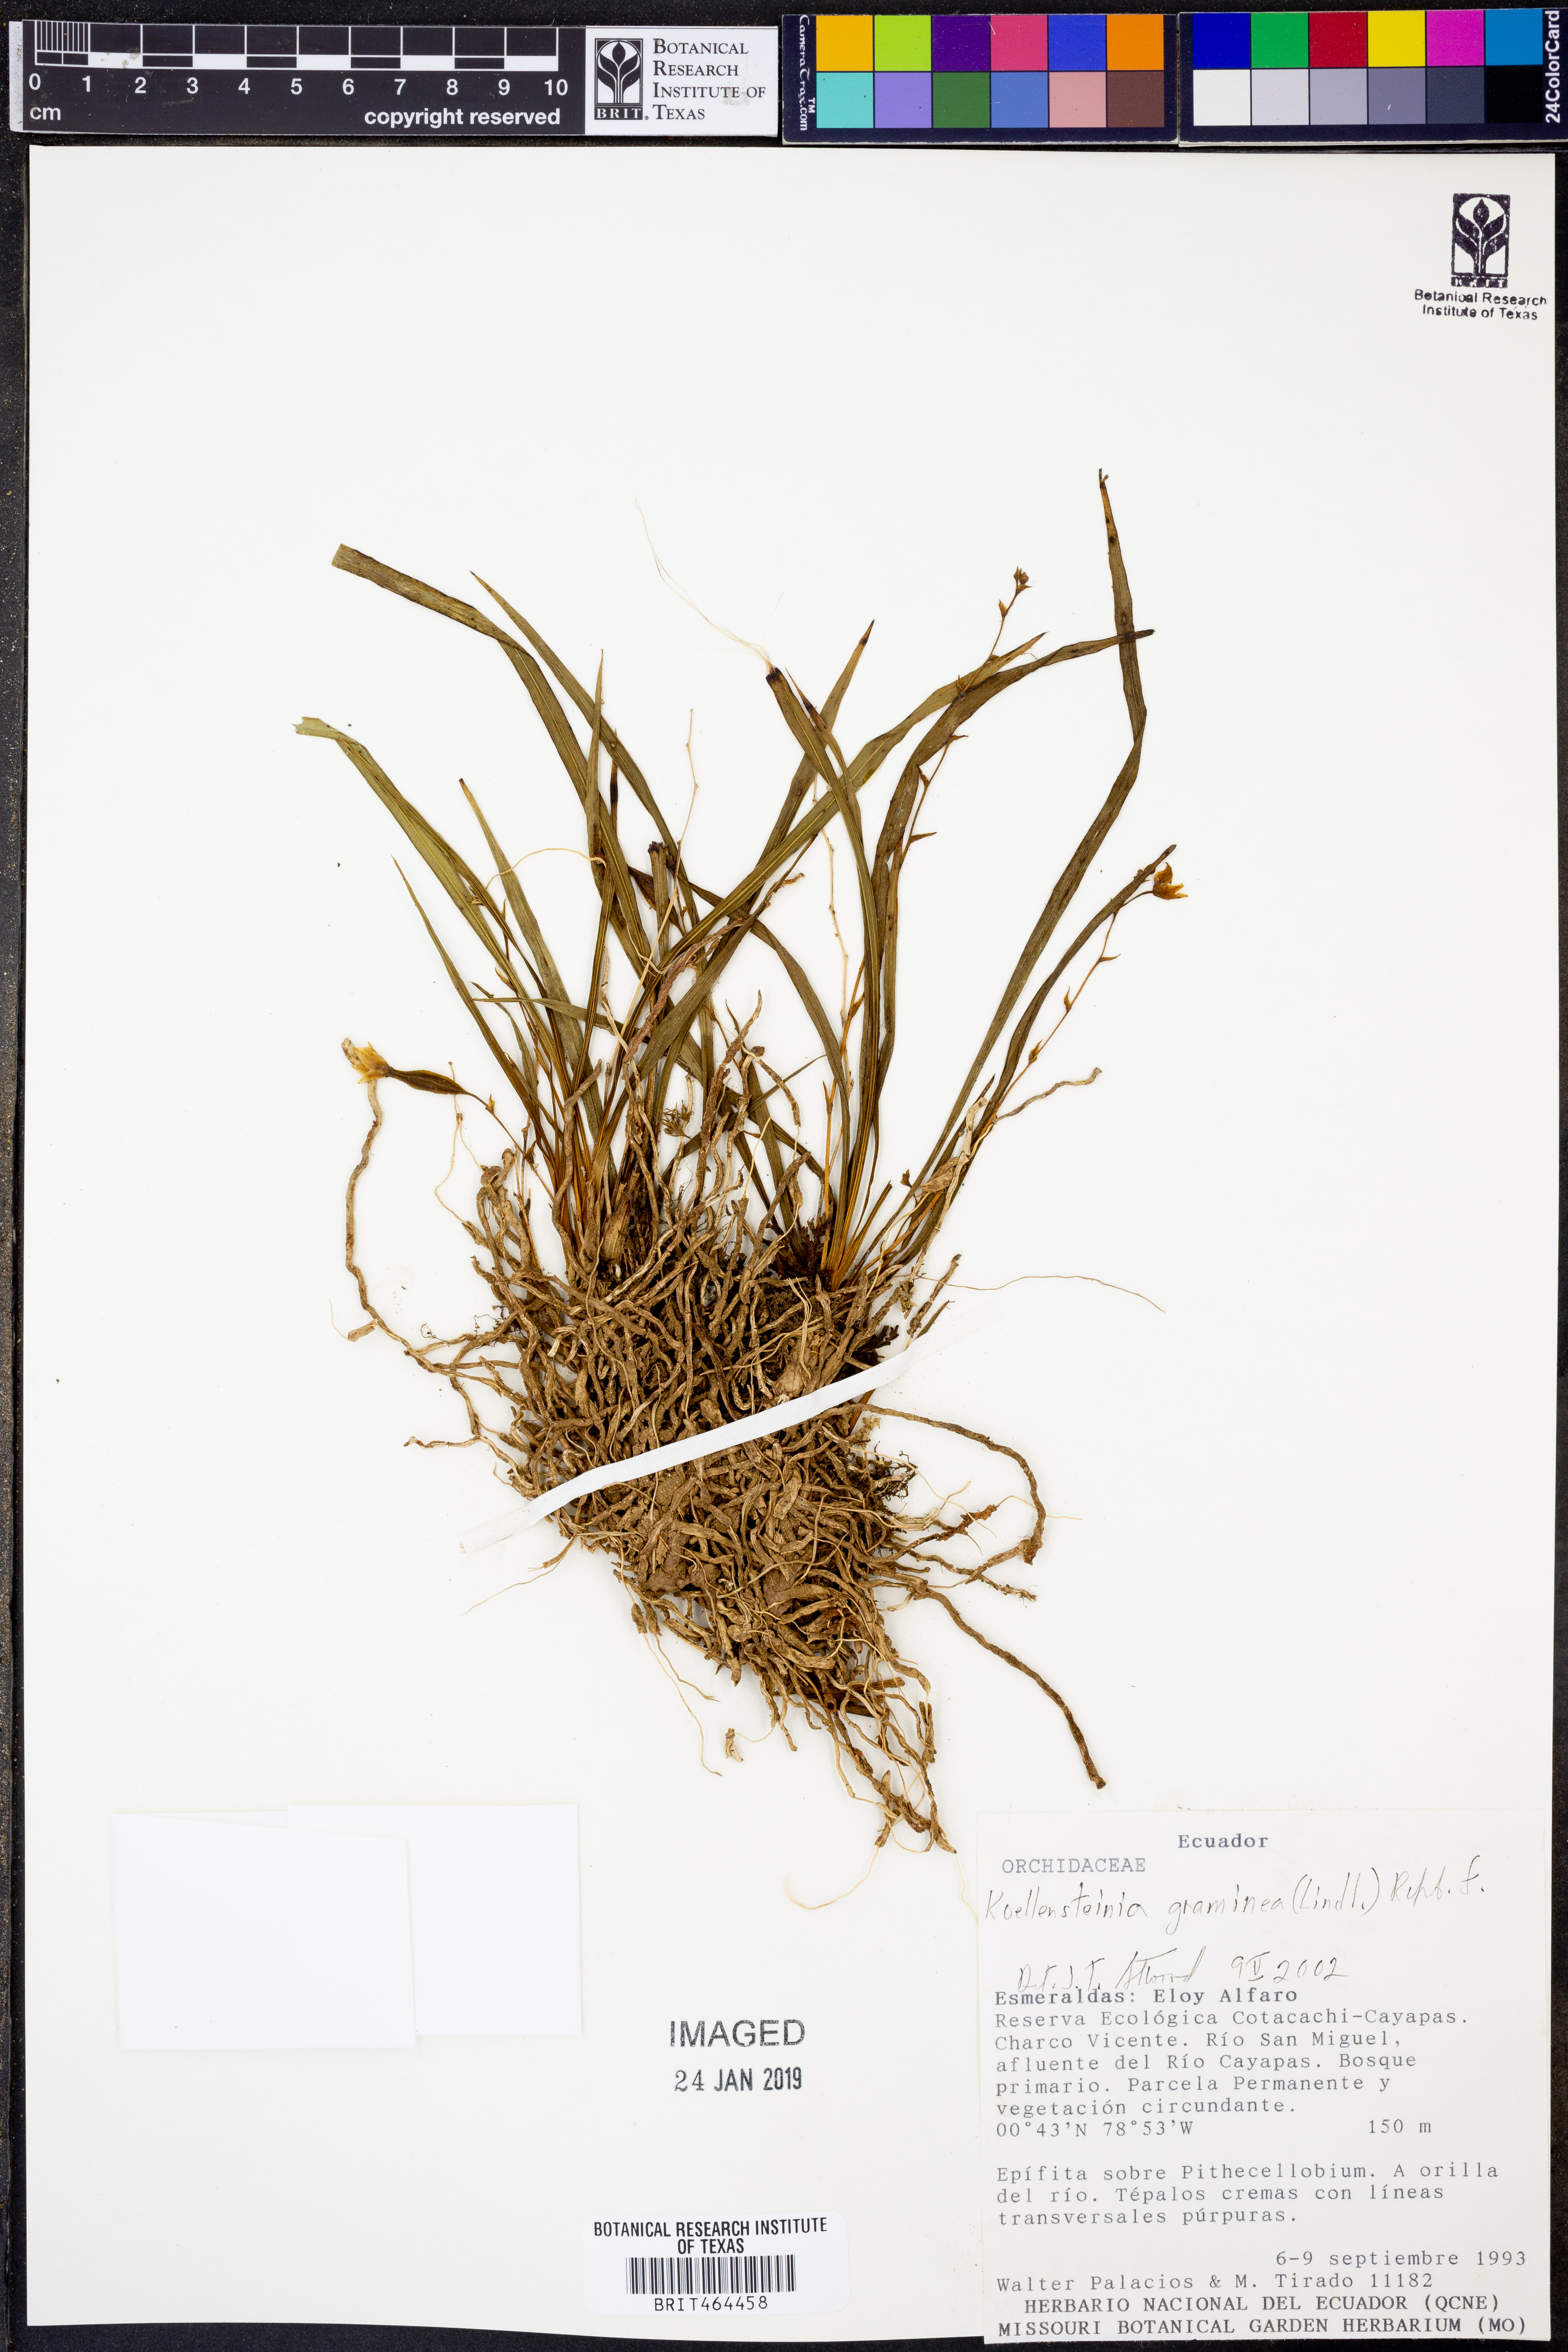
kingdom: Plantae
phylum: Tracheophyta
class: Liliopsida
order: Asparagales
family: Orchidaceae
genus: Koellensteinia
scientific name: Koellensteinia graminea
